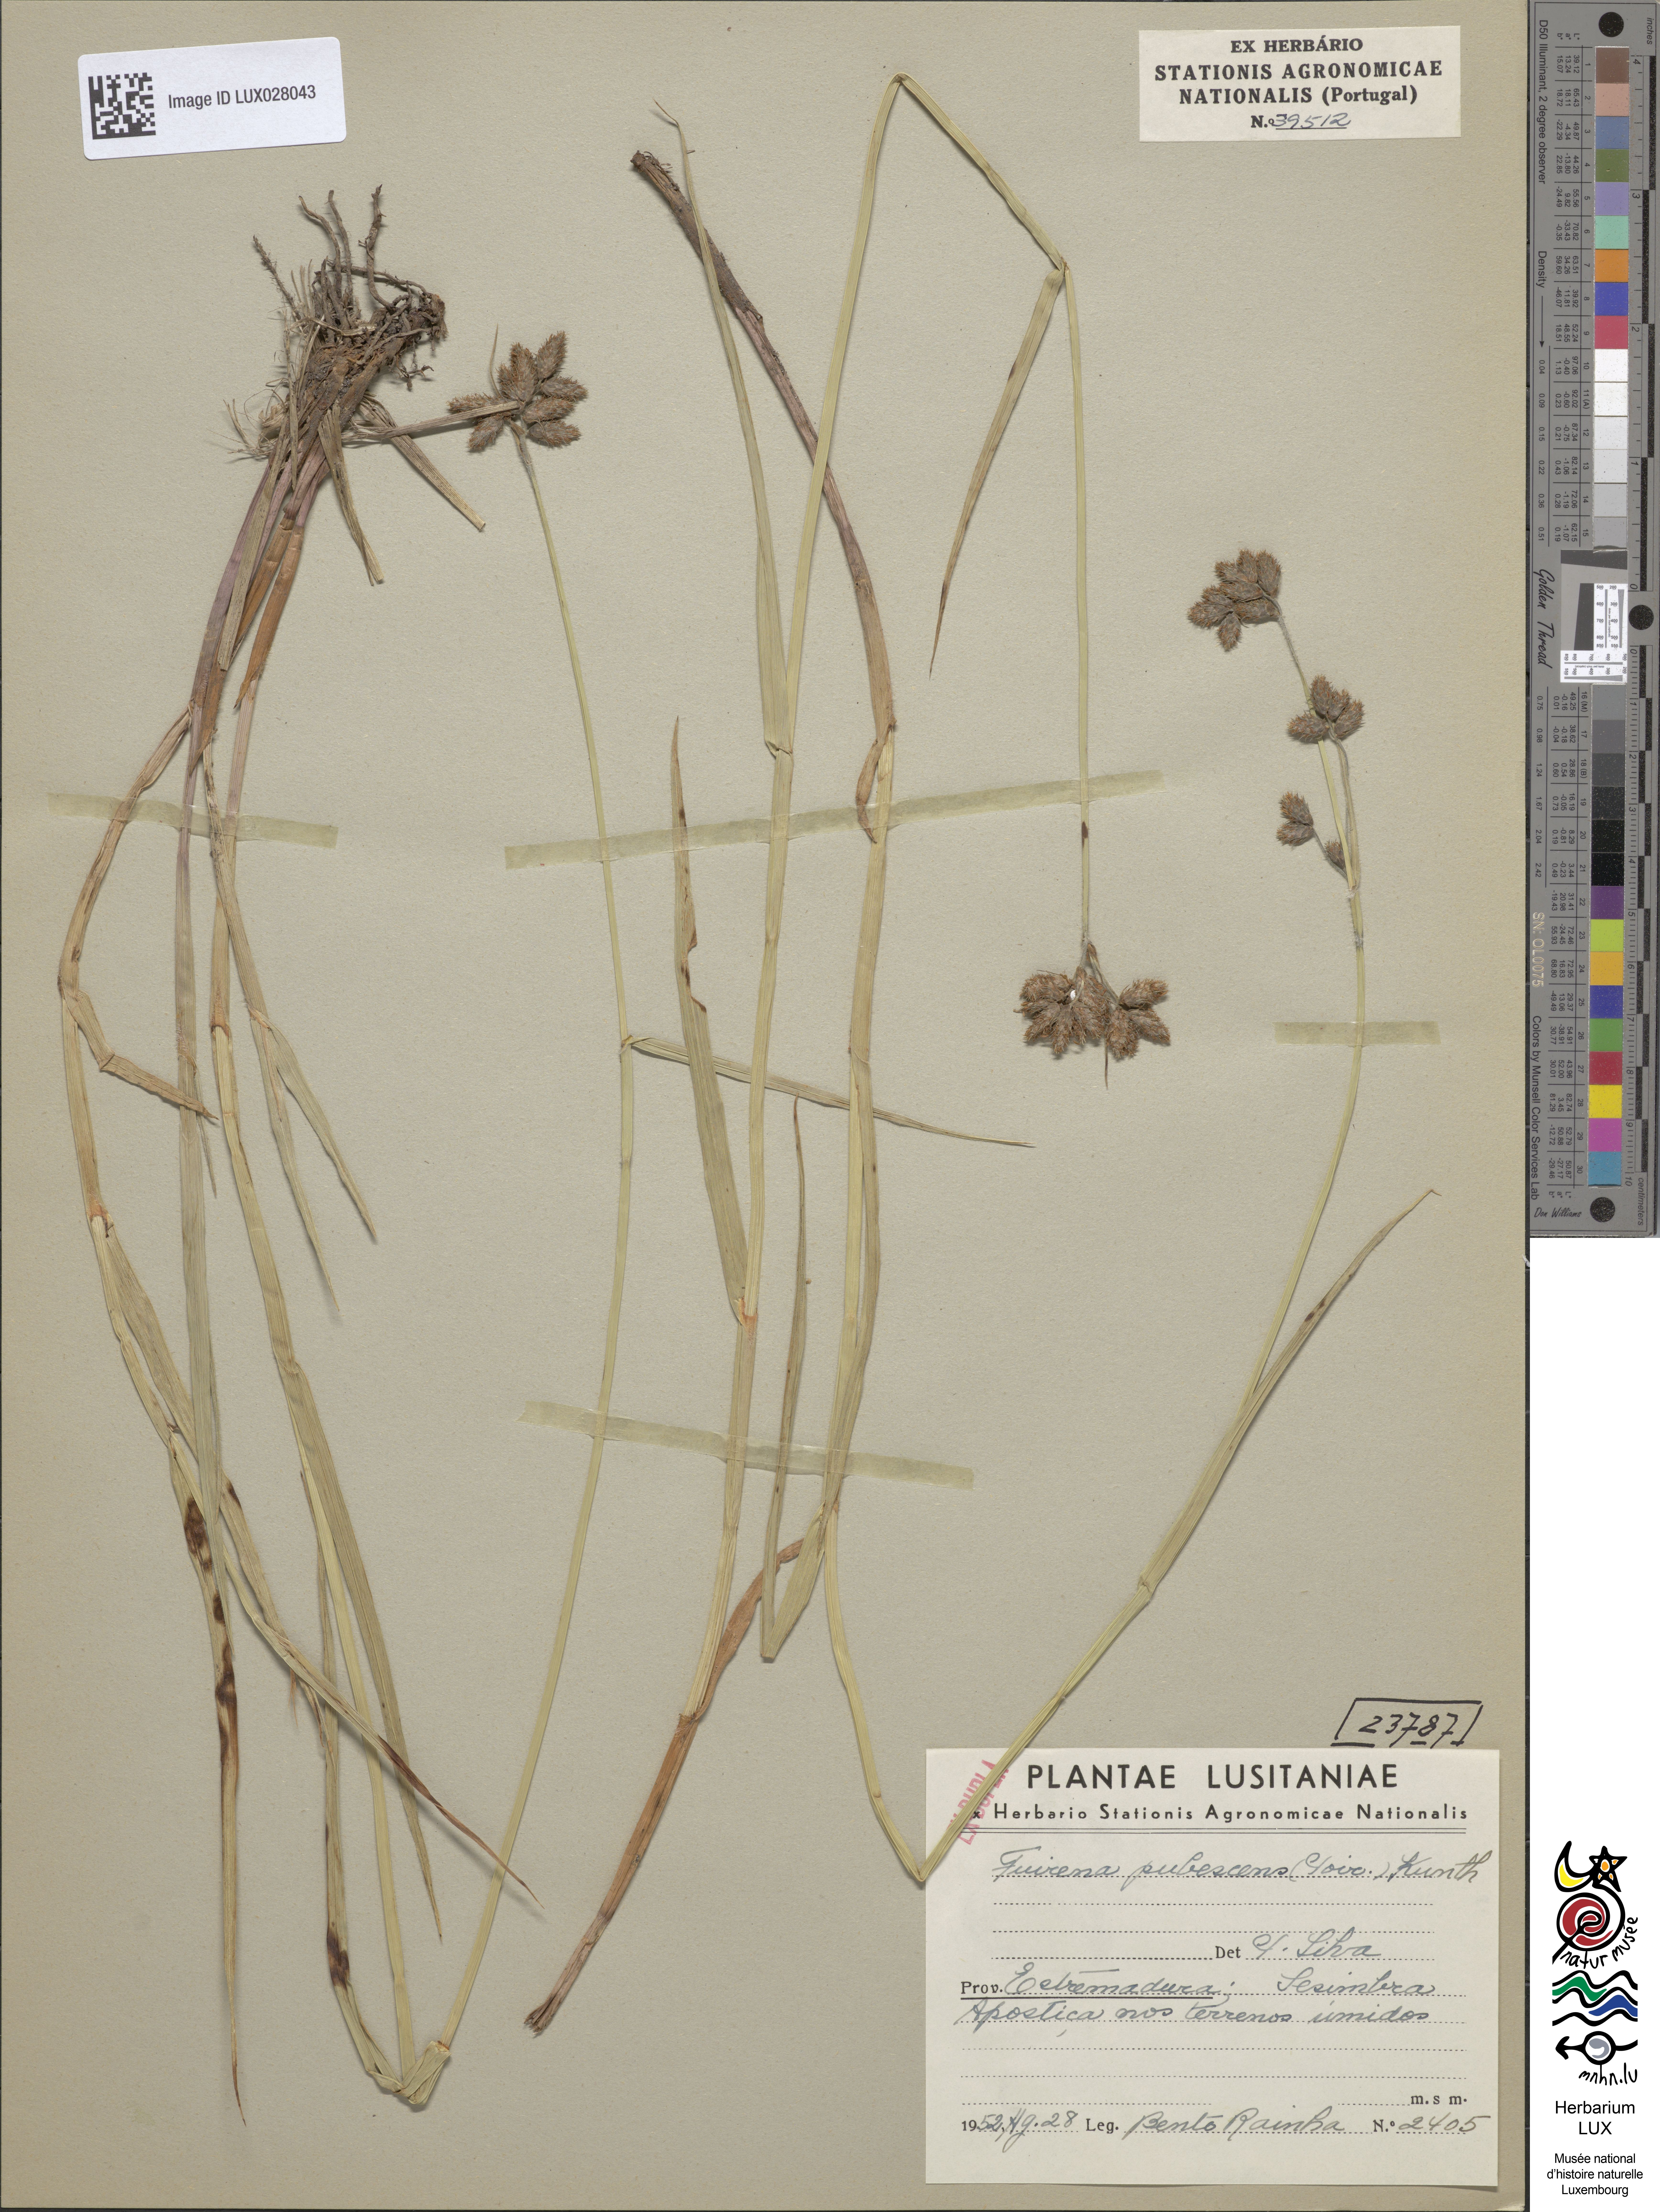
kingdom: Plantae
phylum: Tracheophyta
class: Liliopsida
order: Poales
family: Cyperaceae
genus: Fuirena
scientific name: Fuirena pubescens
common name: Hairy sedge
